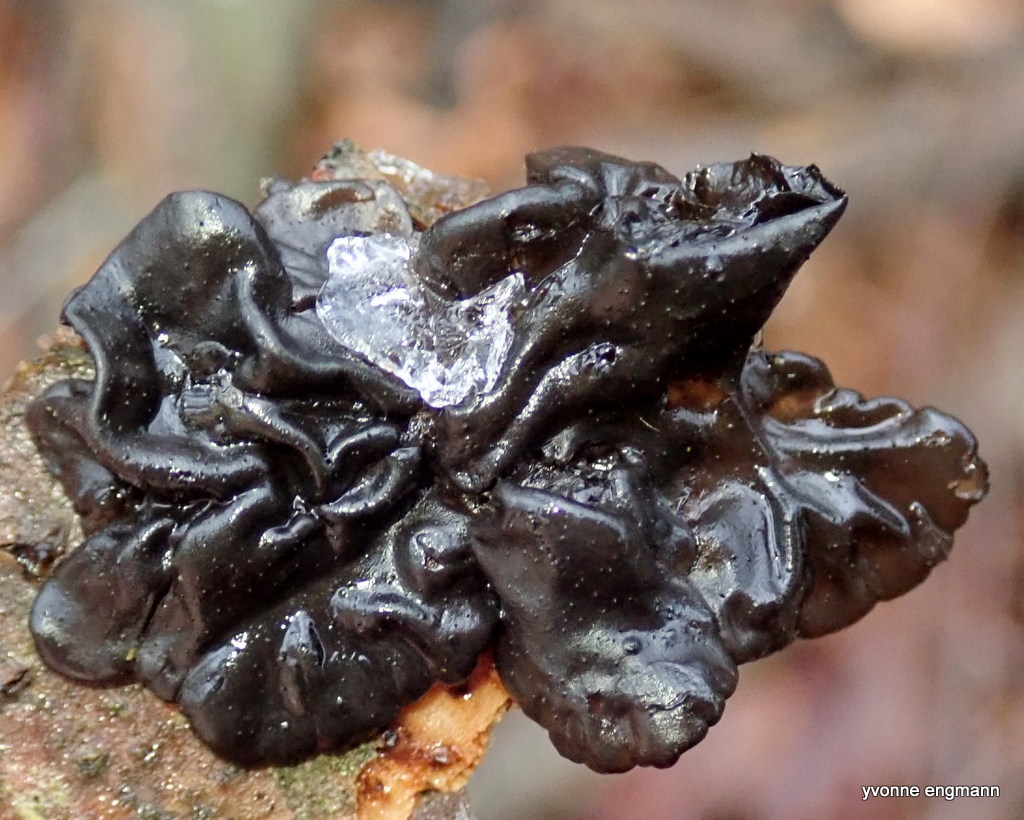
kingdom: Fungi
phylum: Basidiomycota
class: Agaricomycetes
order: Auriculariales
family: Auriculariaceae
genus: Exidia
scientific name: Exidia nigricans
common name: almindelig bævretop
